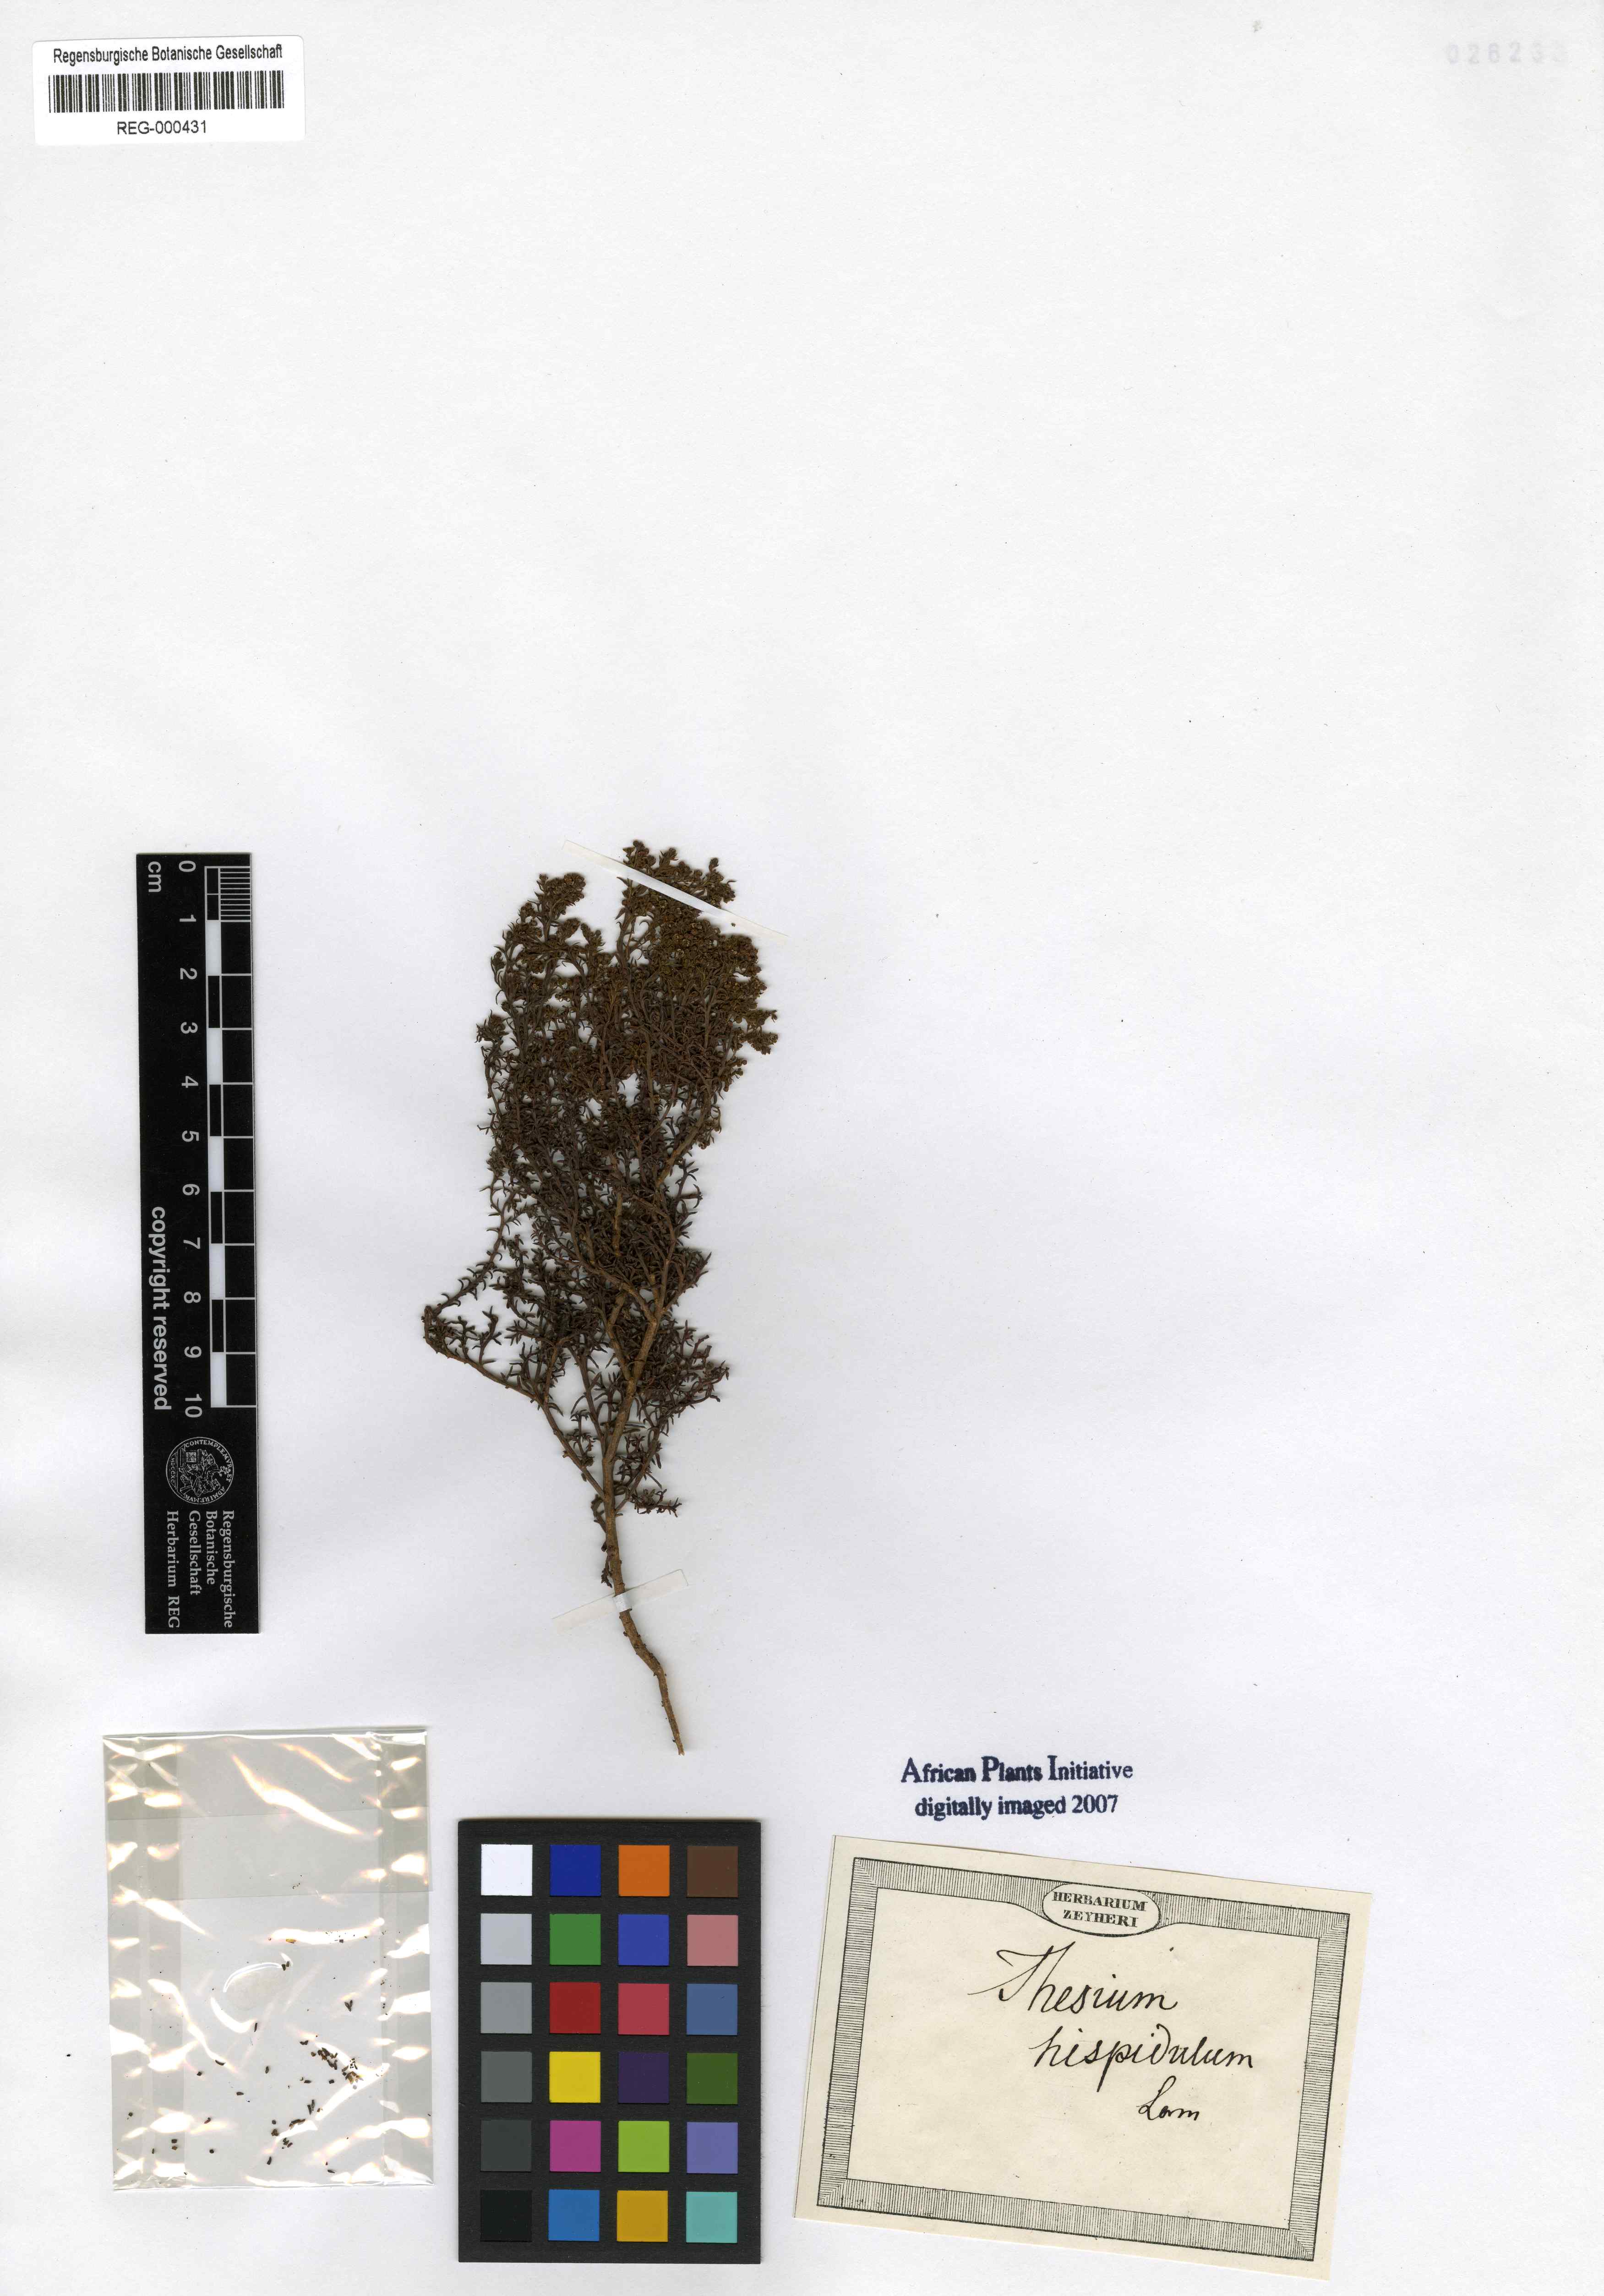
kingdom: Plantae
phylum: Tracheophyta
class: Magnoliopsida
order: Santalales
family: Thesiaceae
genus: Thesium
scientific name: Thesium squarrosum
